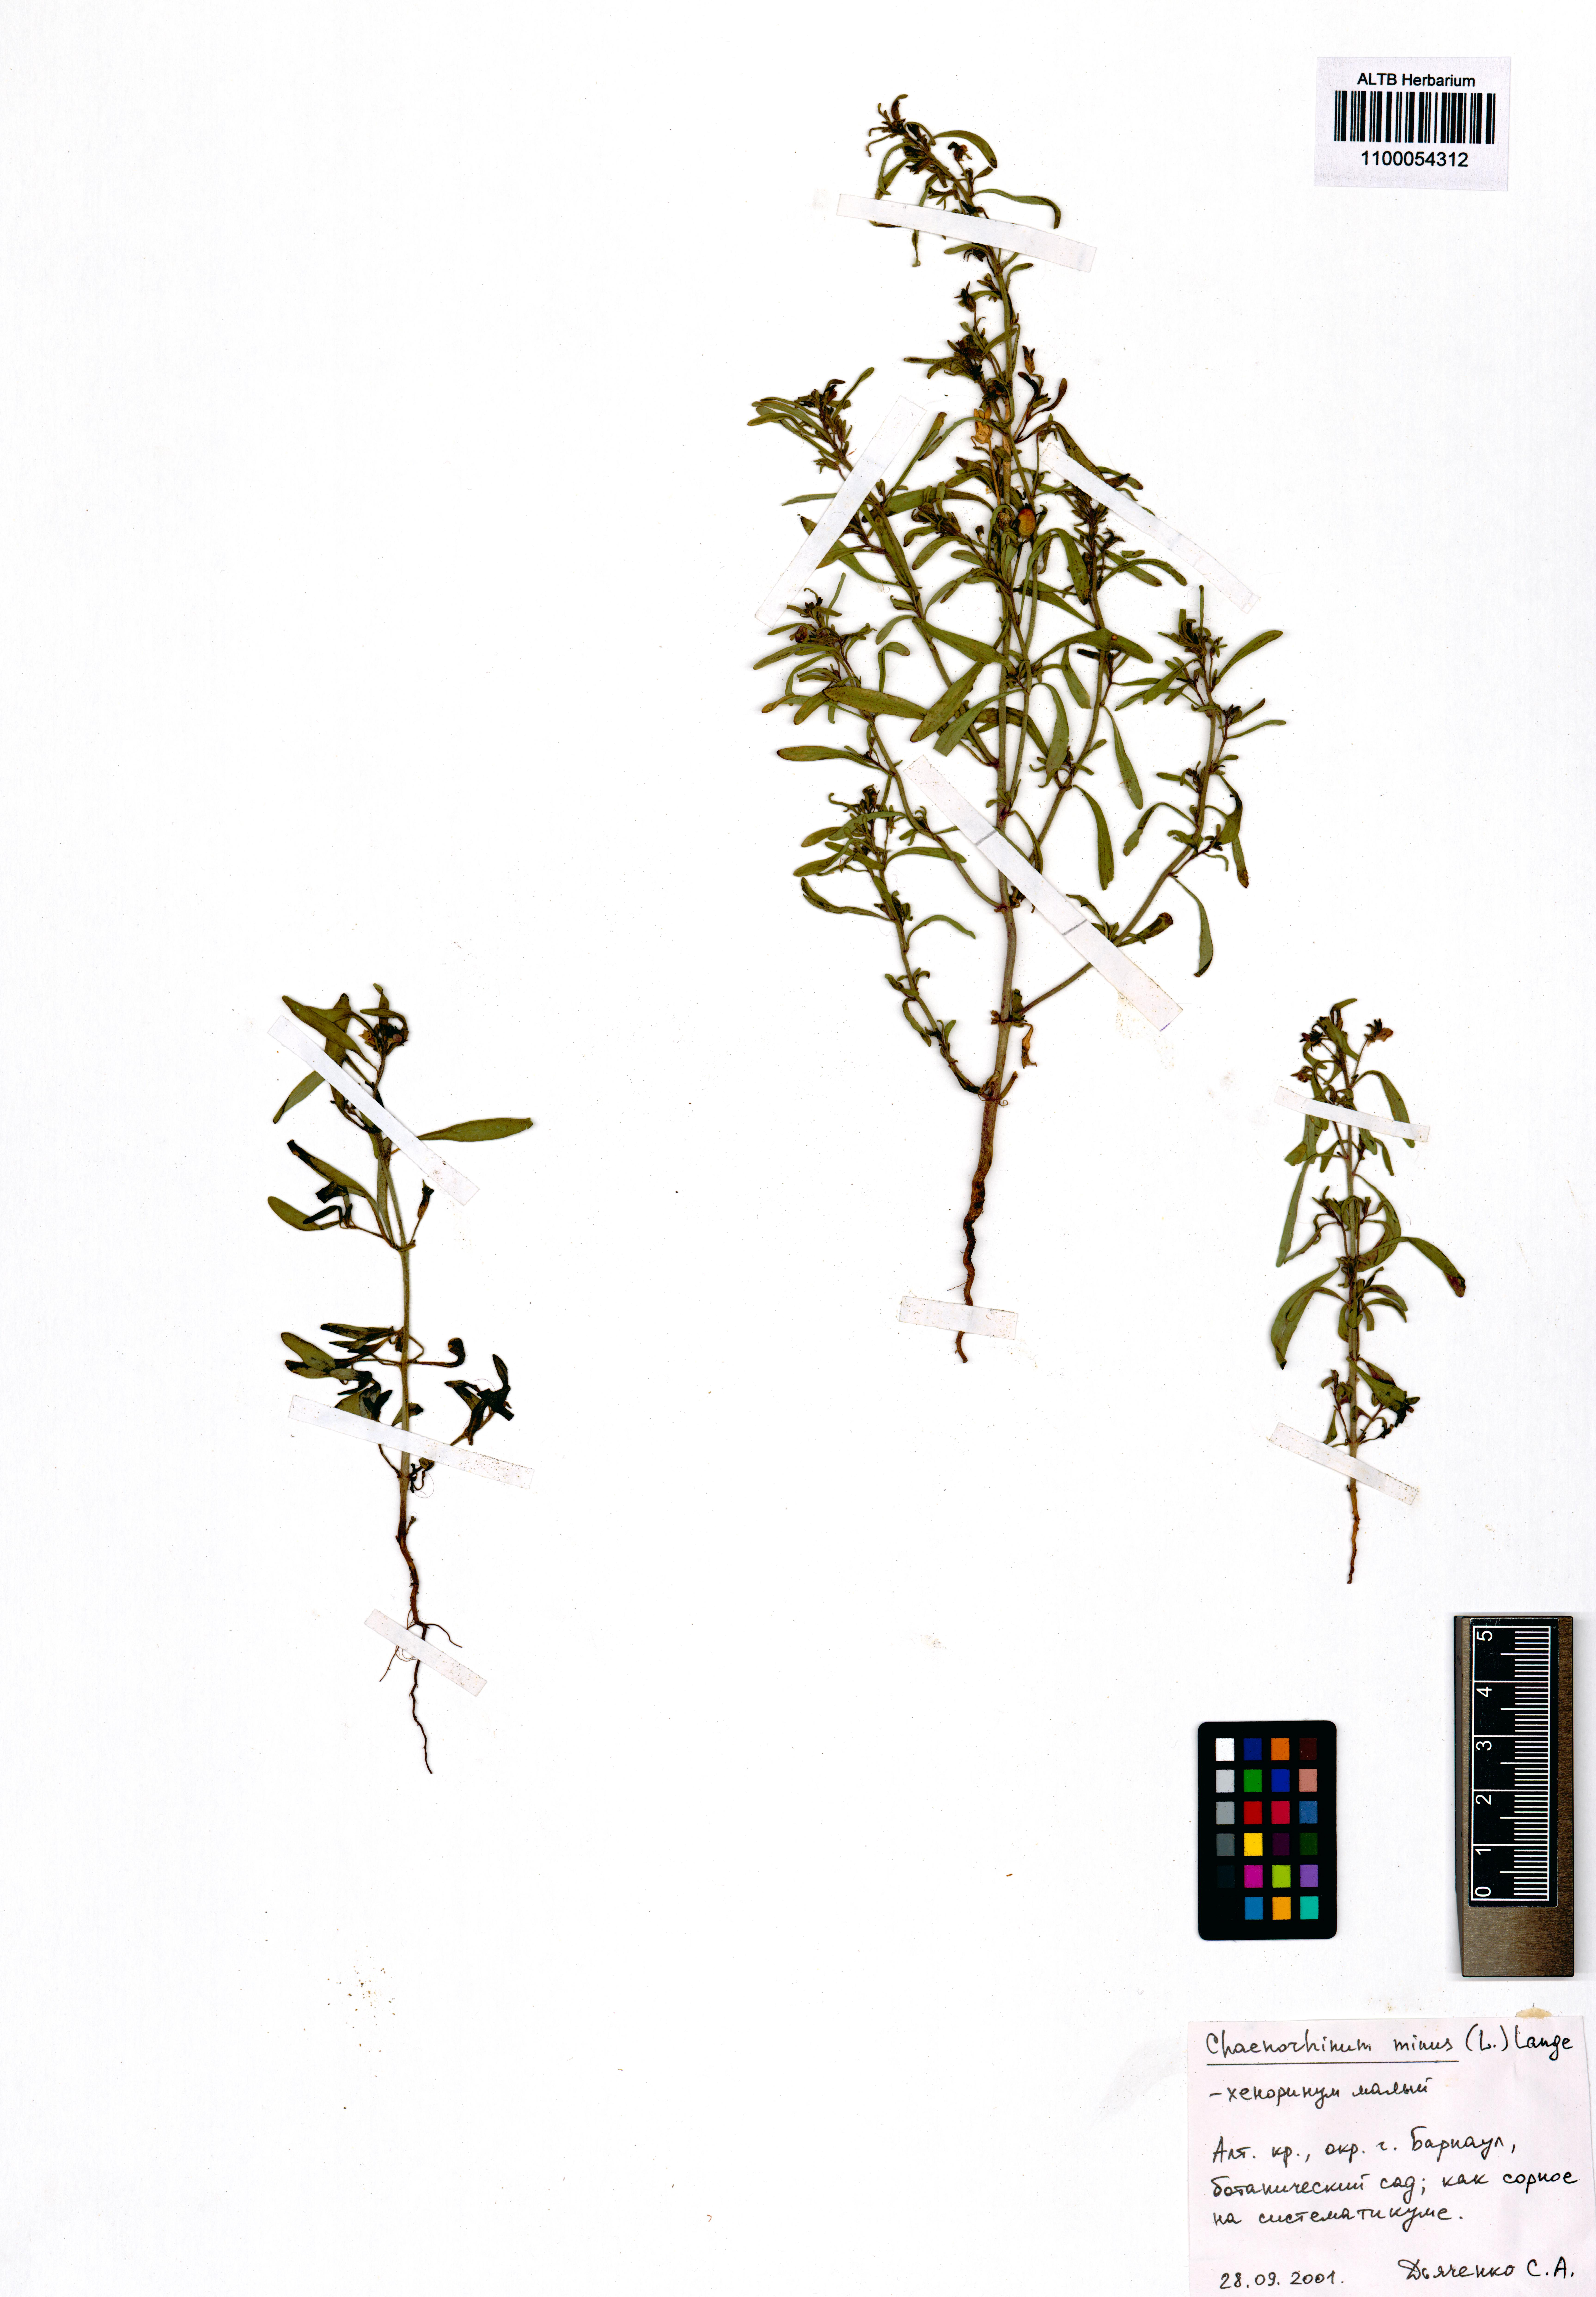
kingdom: Plantae
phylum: Tracheophyta
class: Magnoliopsida
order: Lamiales
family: Plantaginaceae
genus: Chaenorhinum
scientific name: Chaenorhinum minus
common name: Dwarf snapdragon
